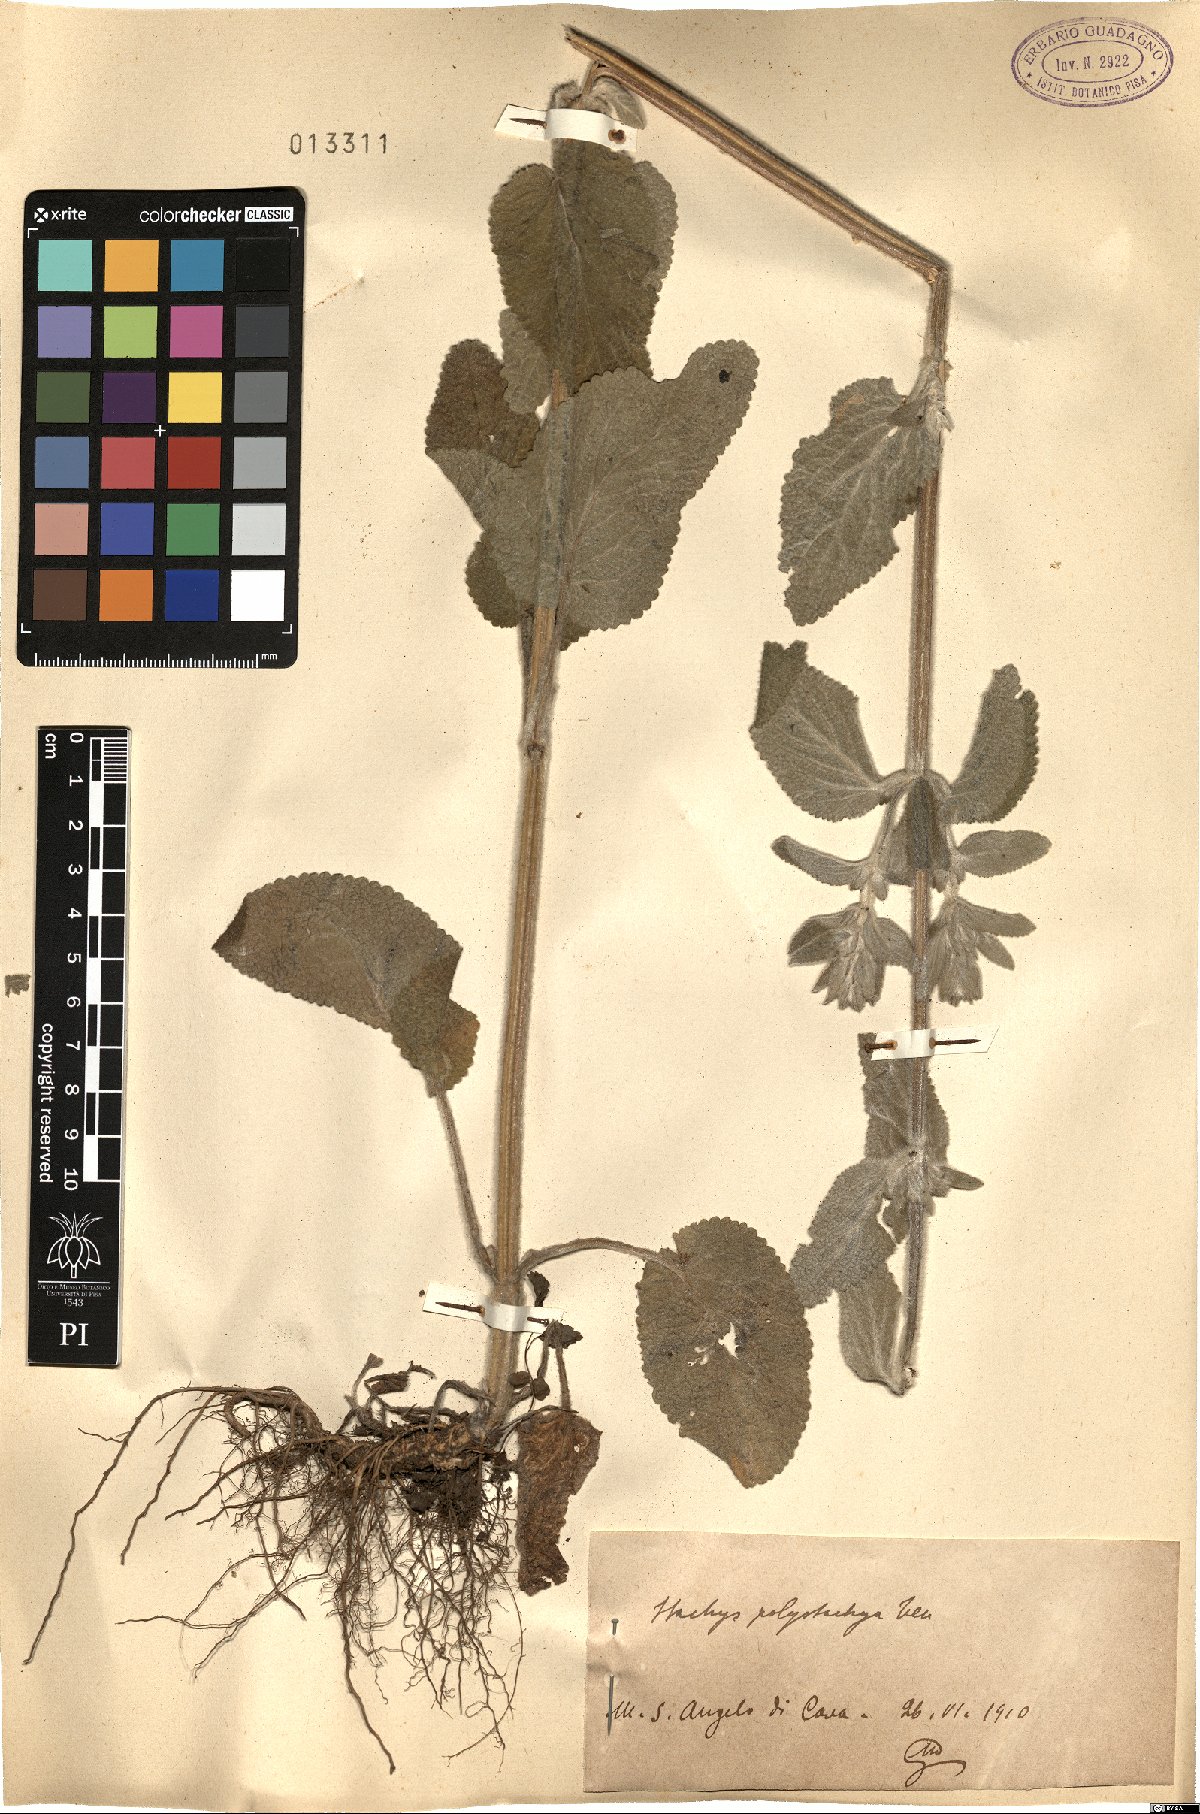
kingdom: Plantae
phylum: Tracheophyta
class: Magnoliopsida
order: Lamiales
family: Lamiaceae
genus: Stachys
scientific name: Stachys germanica
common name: Downy woundwort
